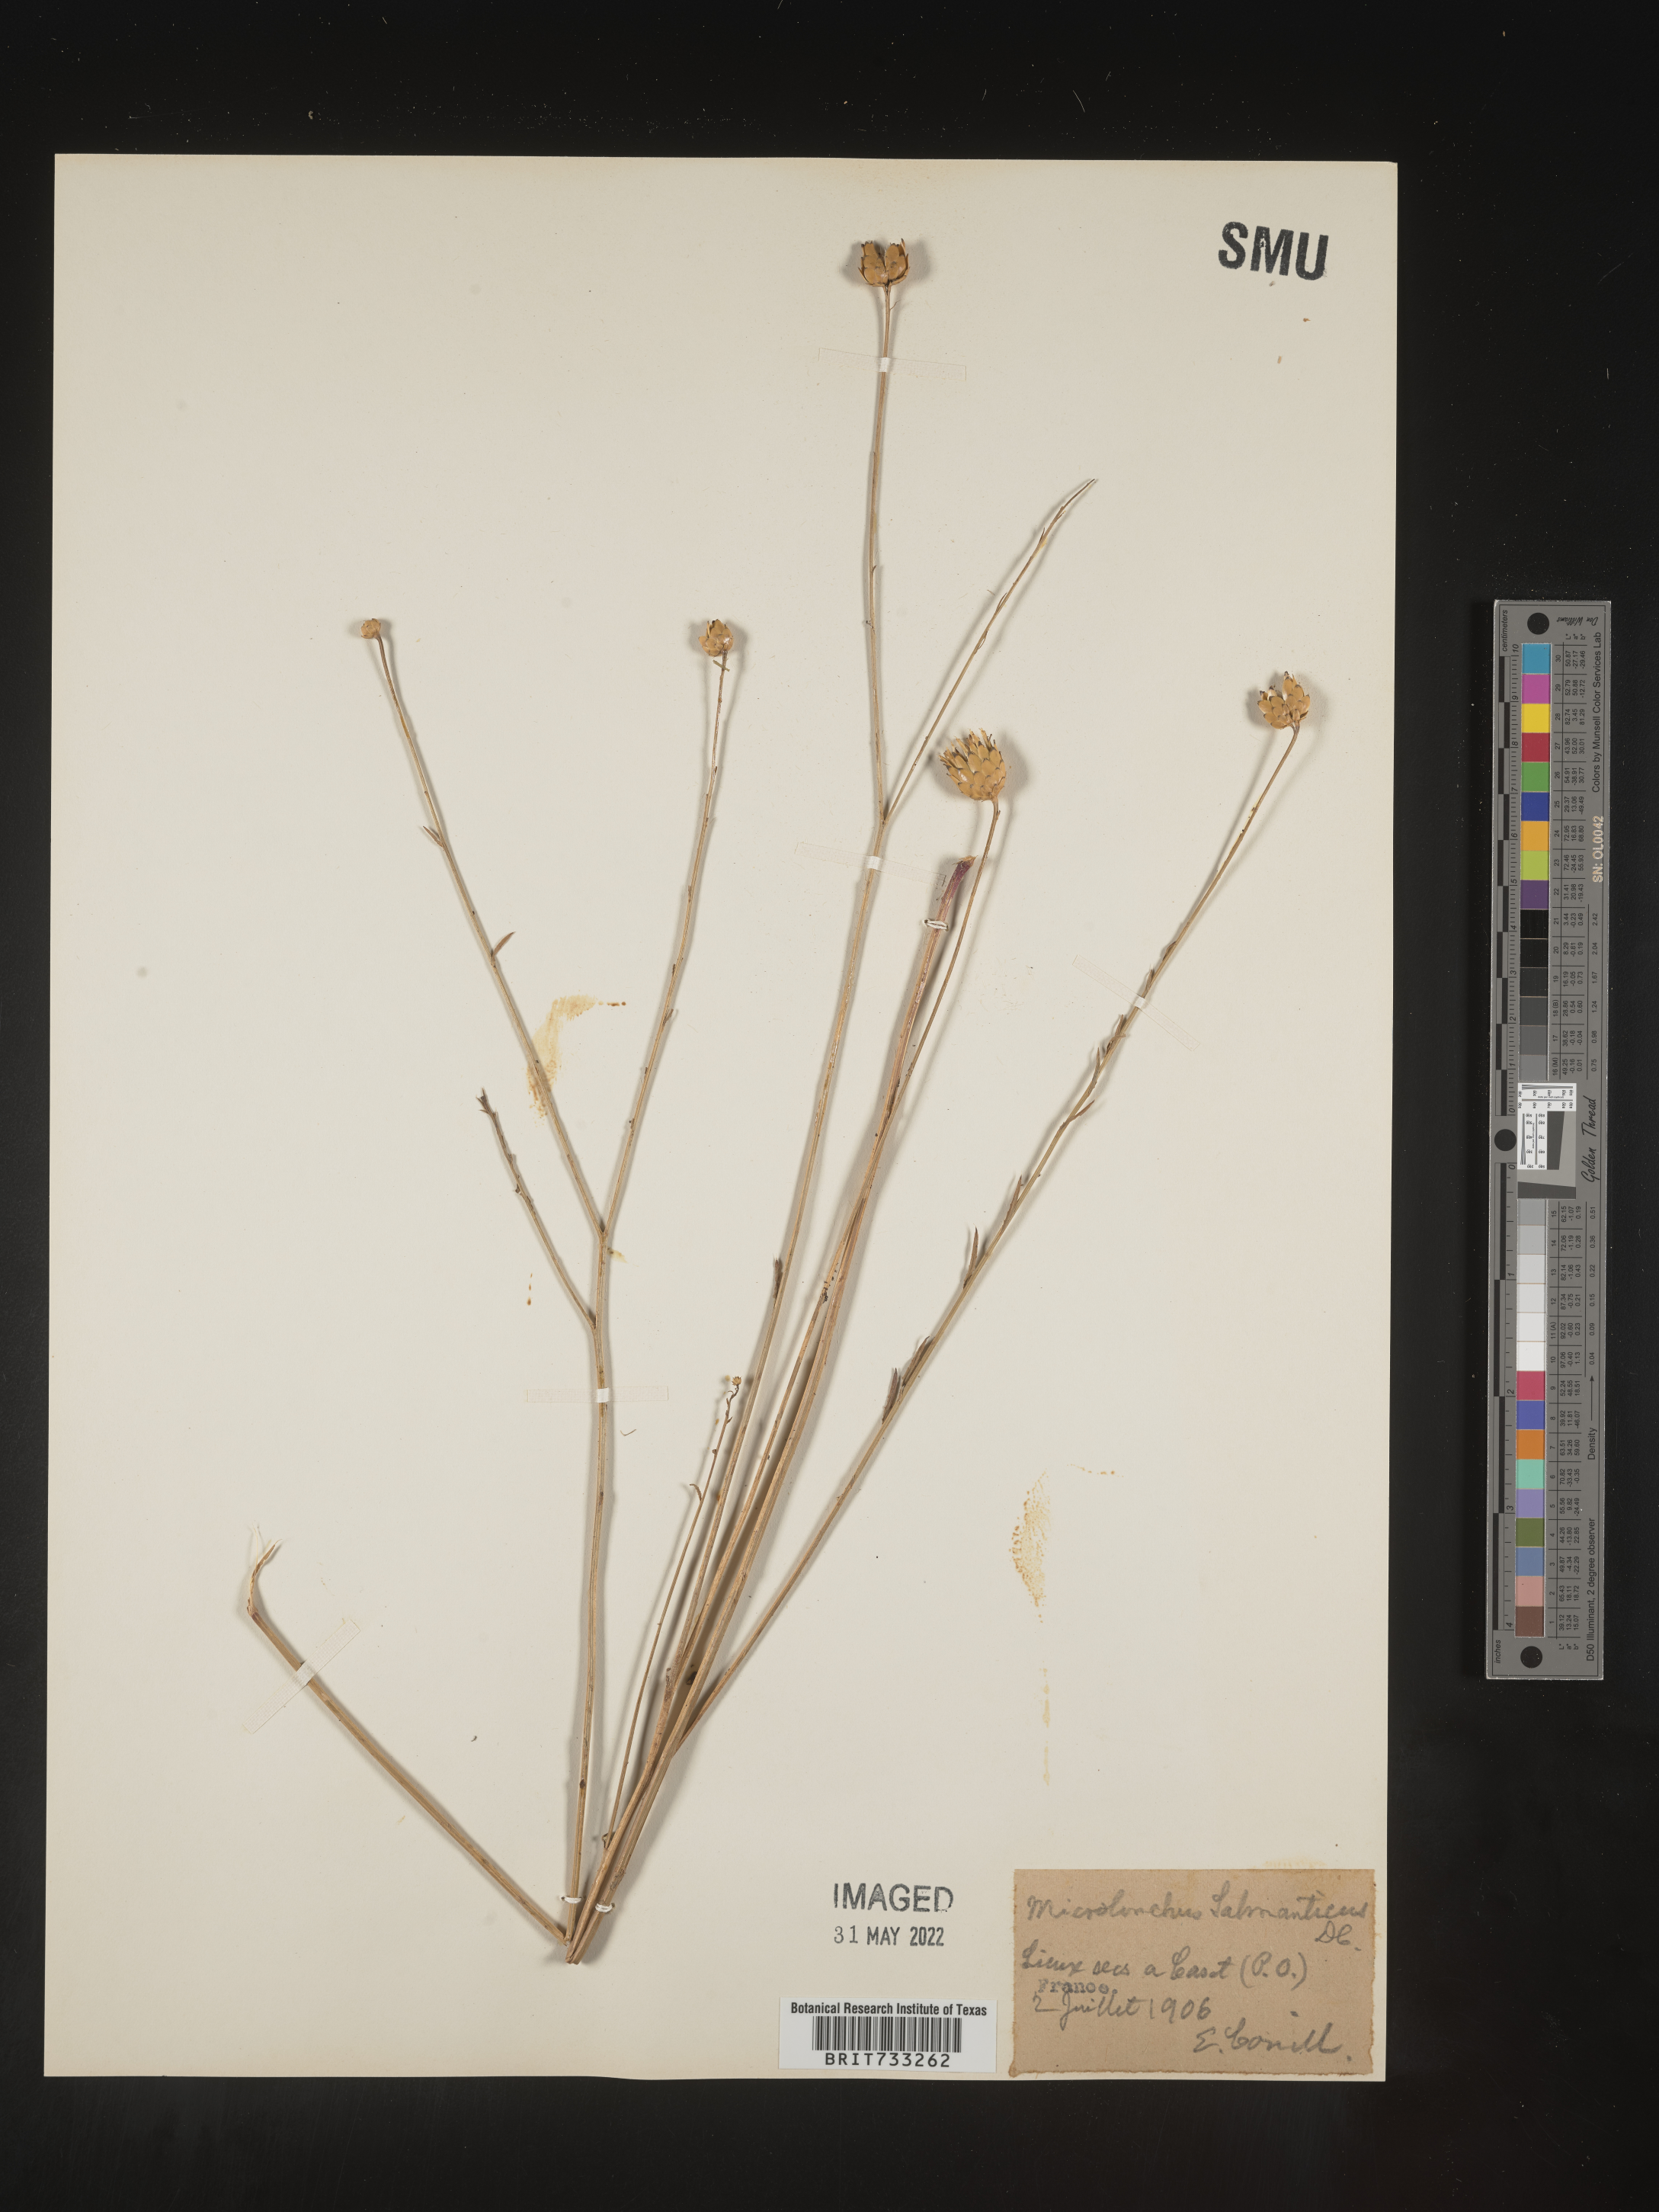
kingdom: Plantae
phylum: Tracheophyta
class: Magnoliopsida
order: Asterales
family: Asteraceae
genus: Mantisalca
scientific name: Mantisalca
